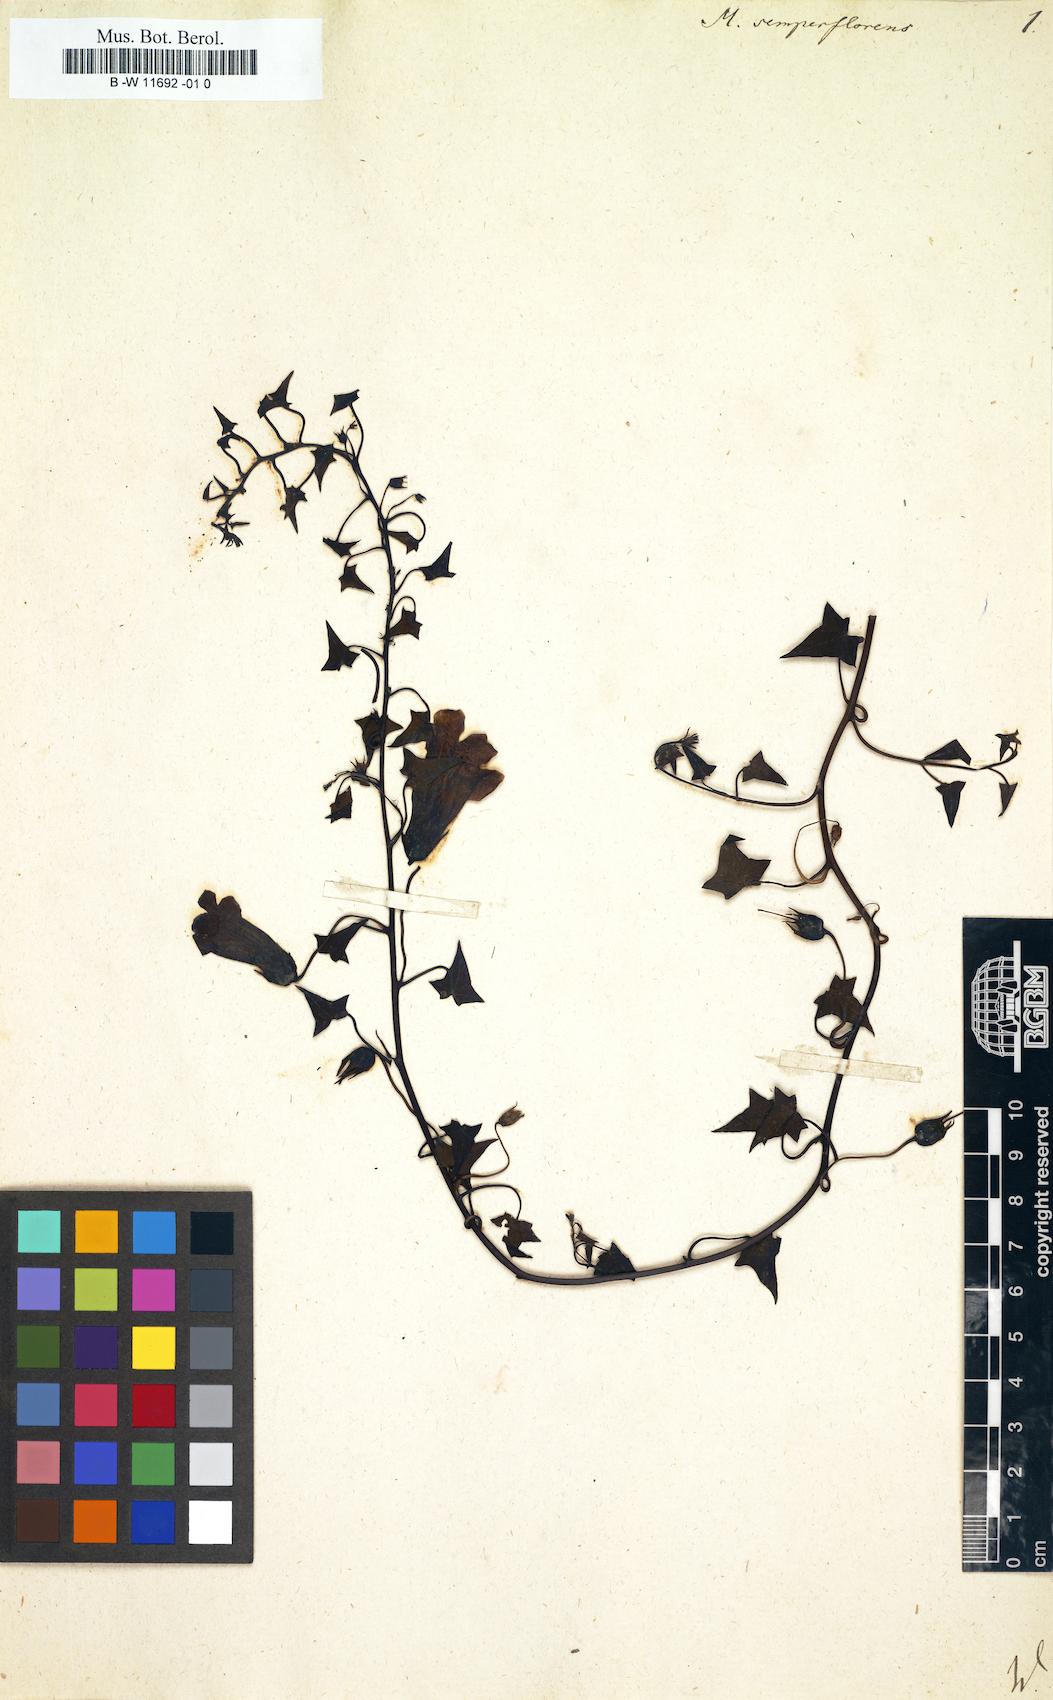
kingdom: Plantae
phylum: Tracheophyta
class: Magnoliopsida
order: Lamiales
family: Scrophulariaceae
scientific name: Scrophulariaceae
